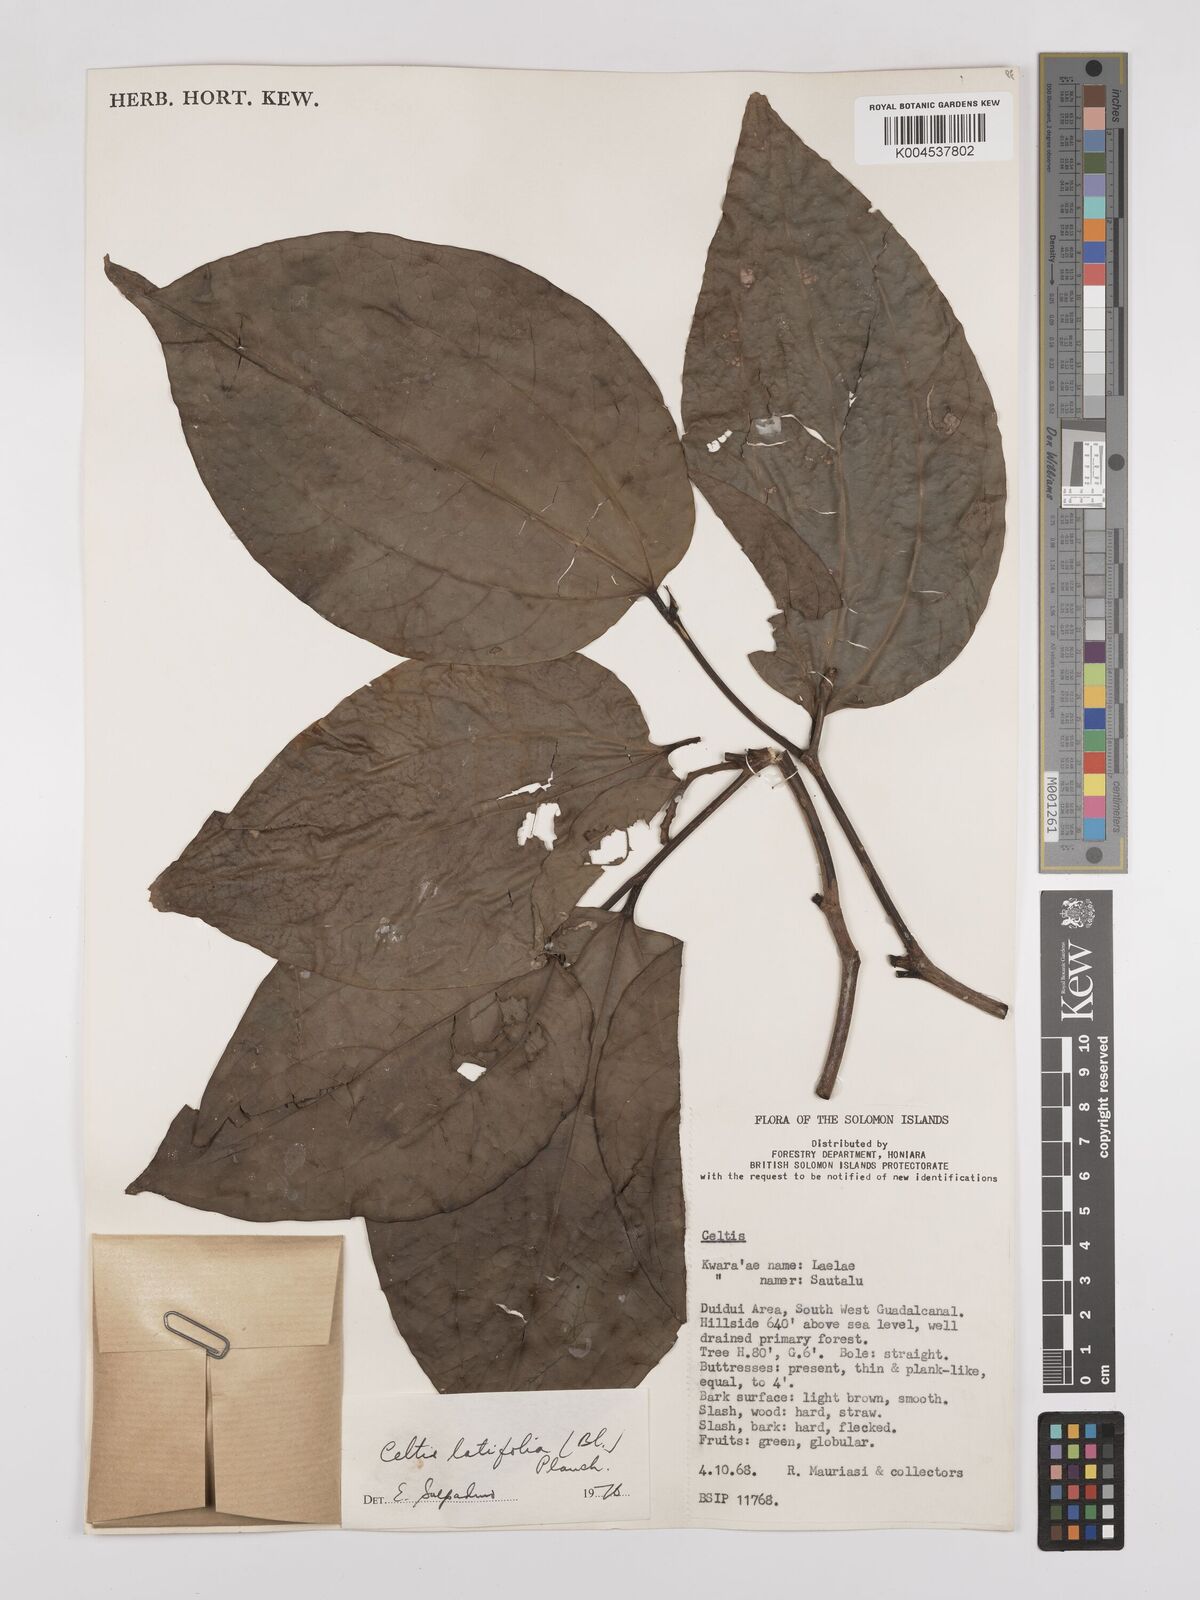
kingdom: Plantae
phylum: Tracheophyta
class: Magnoliopsida
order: Rosales
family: Cannabaceae
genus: Celtis
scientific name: Celtis latifolia
